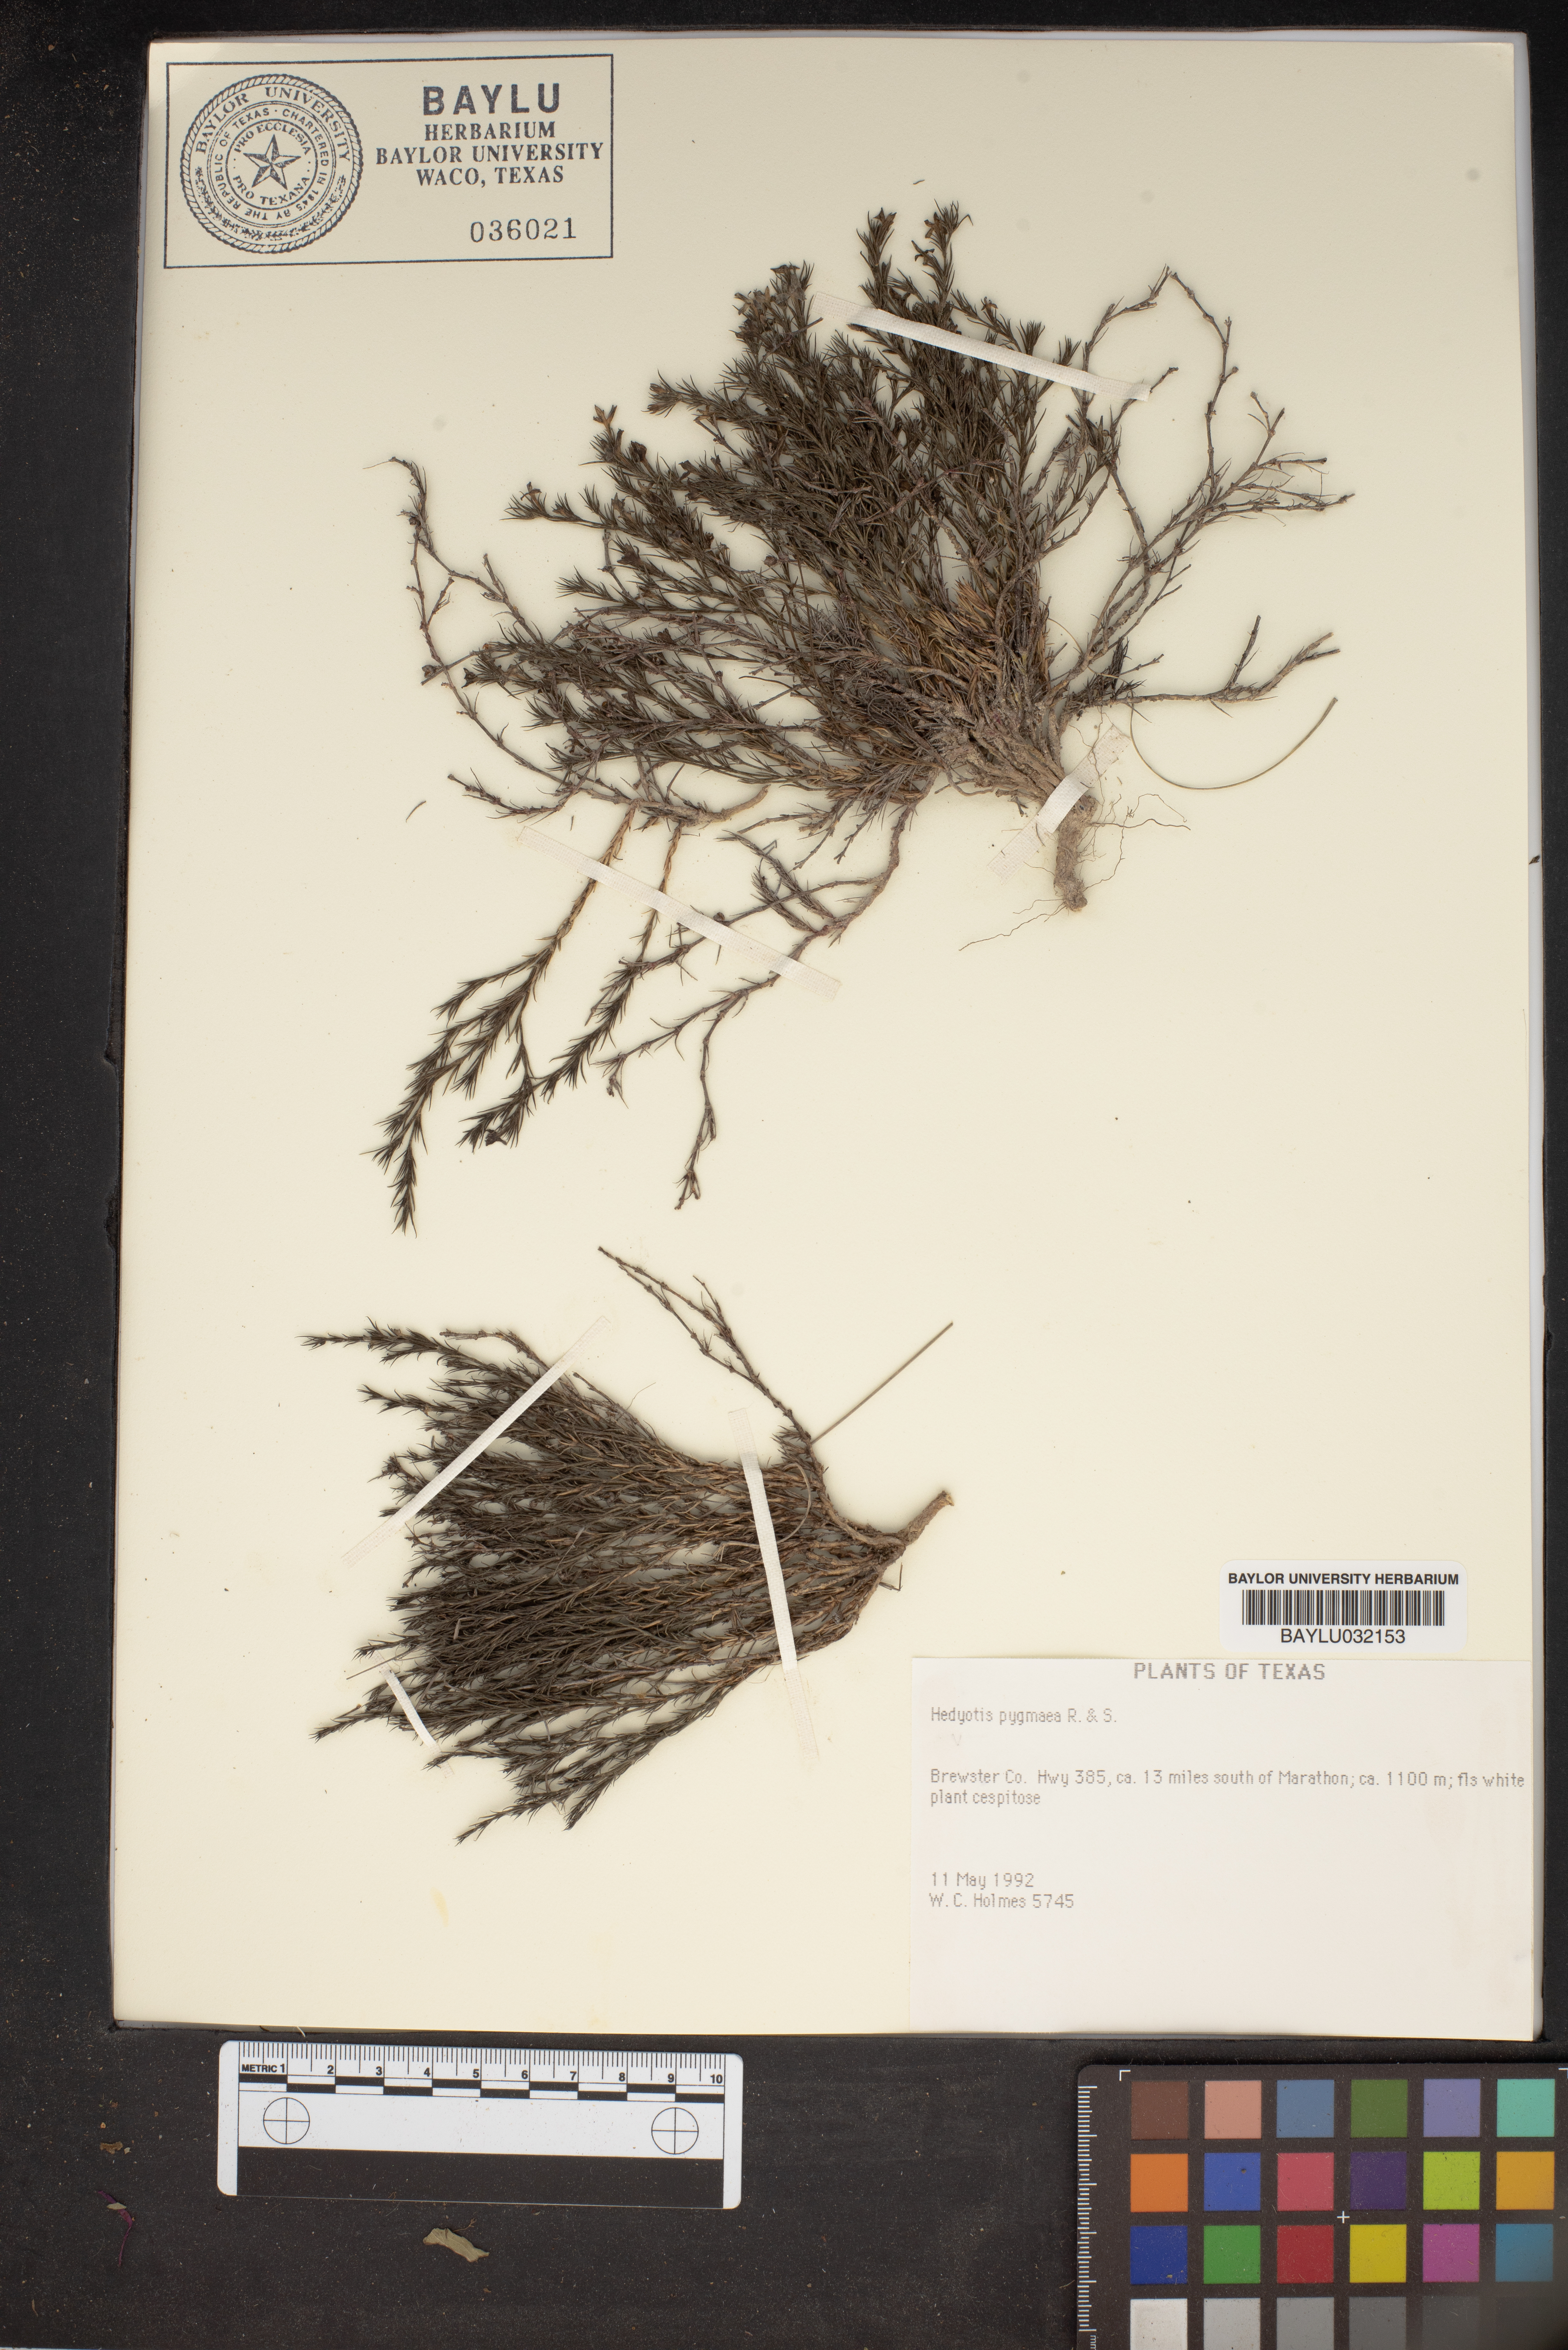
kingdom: Plantae
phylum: Tracheophyta
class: Magnoliopsida
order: Gentianales
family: Rubiaceae
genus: Houstonia
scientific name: Houstonia wrightii
